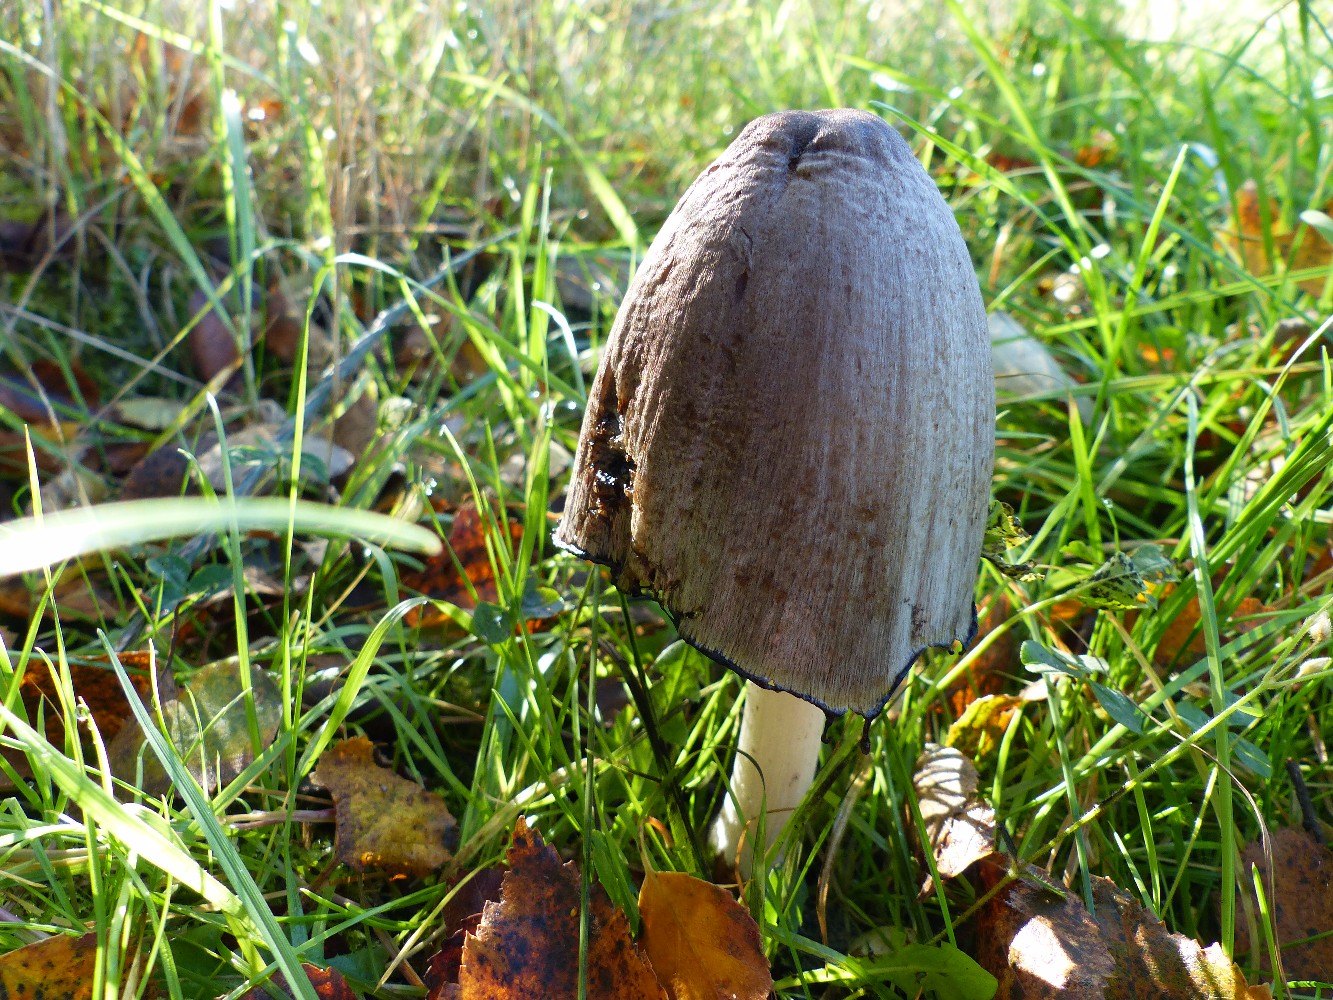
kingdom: Fungi
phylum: Basidiomycota
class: Agaricomycetes
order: Agaricales
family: Psathyrellaceae
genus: Coprinopsis
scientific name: Coprinopsis atramentaria
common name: almindelig blækhat
